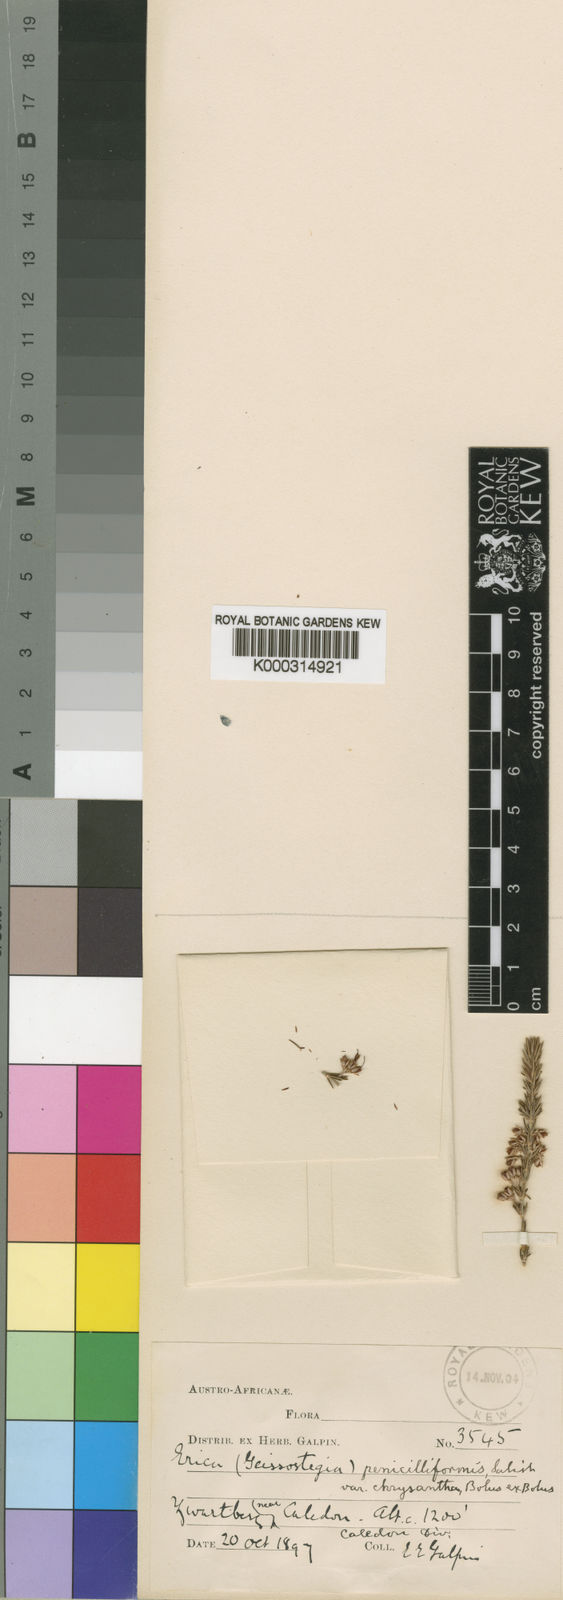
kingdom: Plantae
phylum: Tracheophyta
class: Magnoliopsida
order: Ericales
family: Ericaceae
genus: Erica
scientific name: Erica penicilliformis
